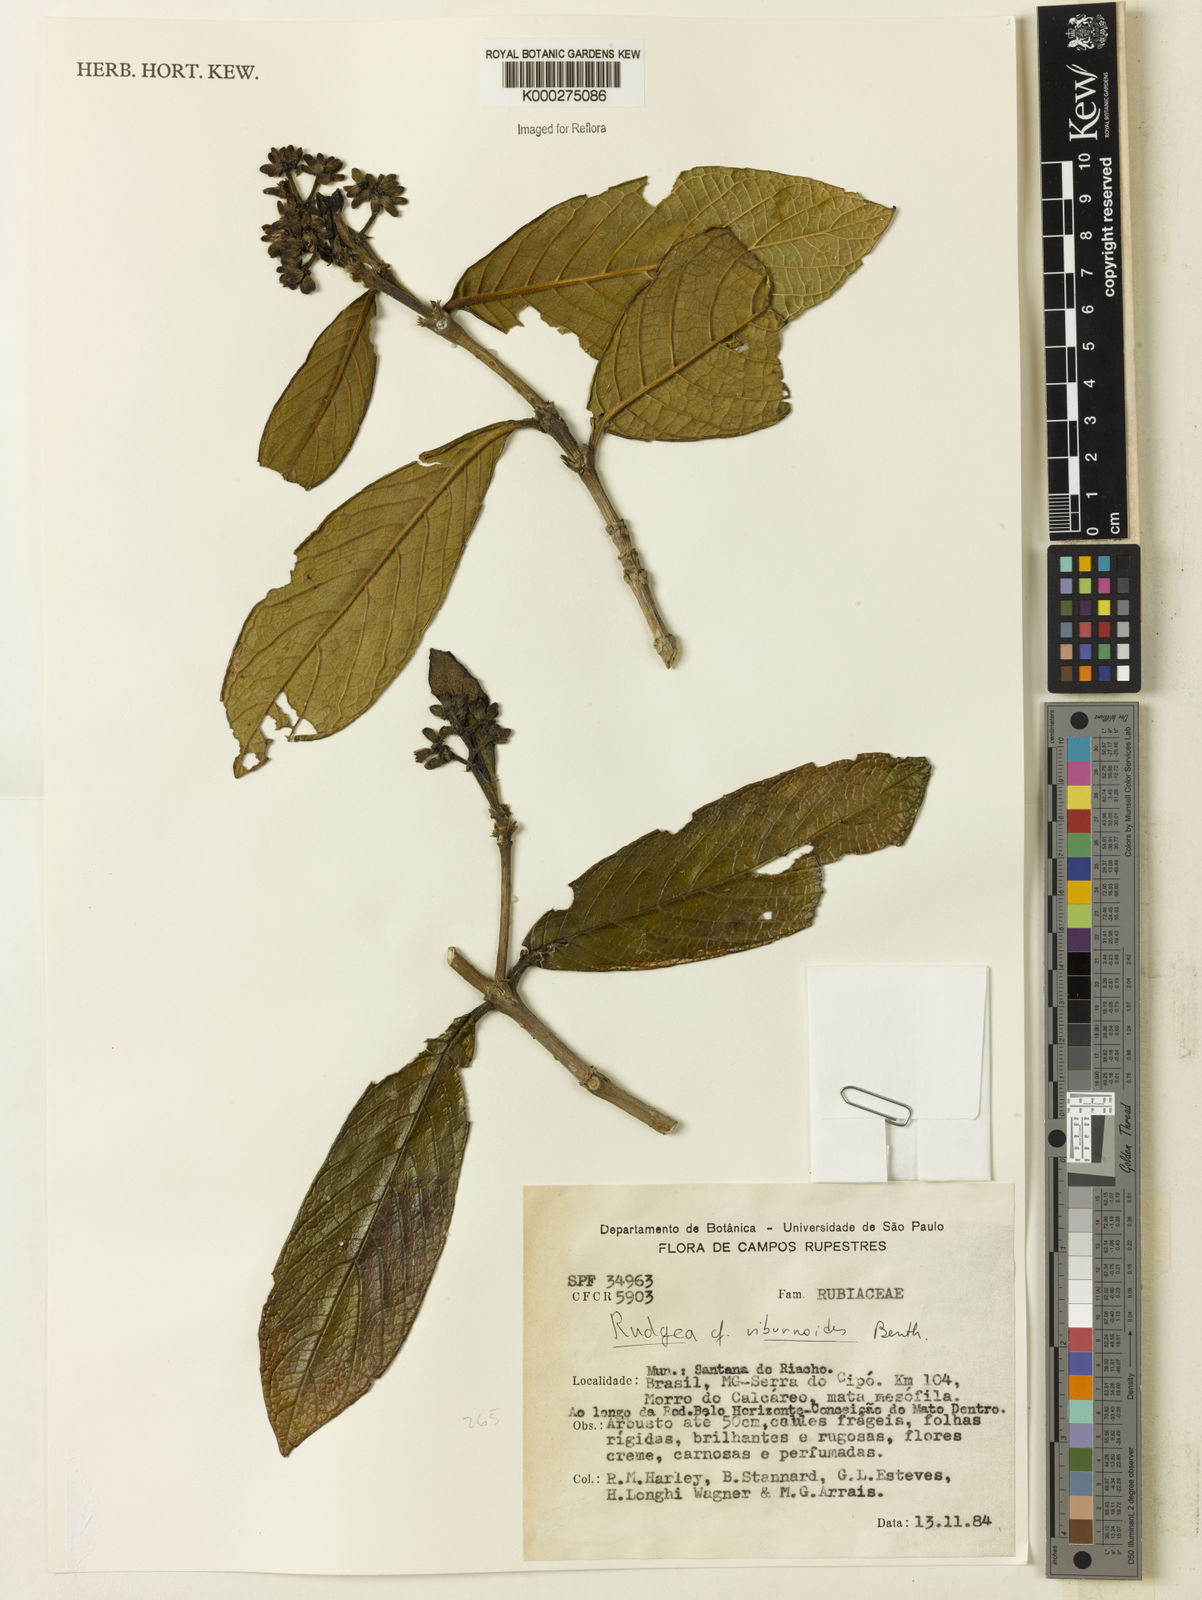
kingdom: Plantae
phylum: Tracheophyta
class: Magnoliopsida
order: Gentianales
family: Rubiaceae
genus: Rudgea
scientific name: Rudgea viburnoides
